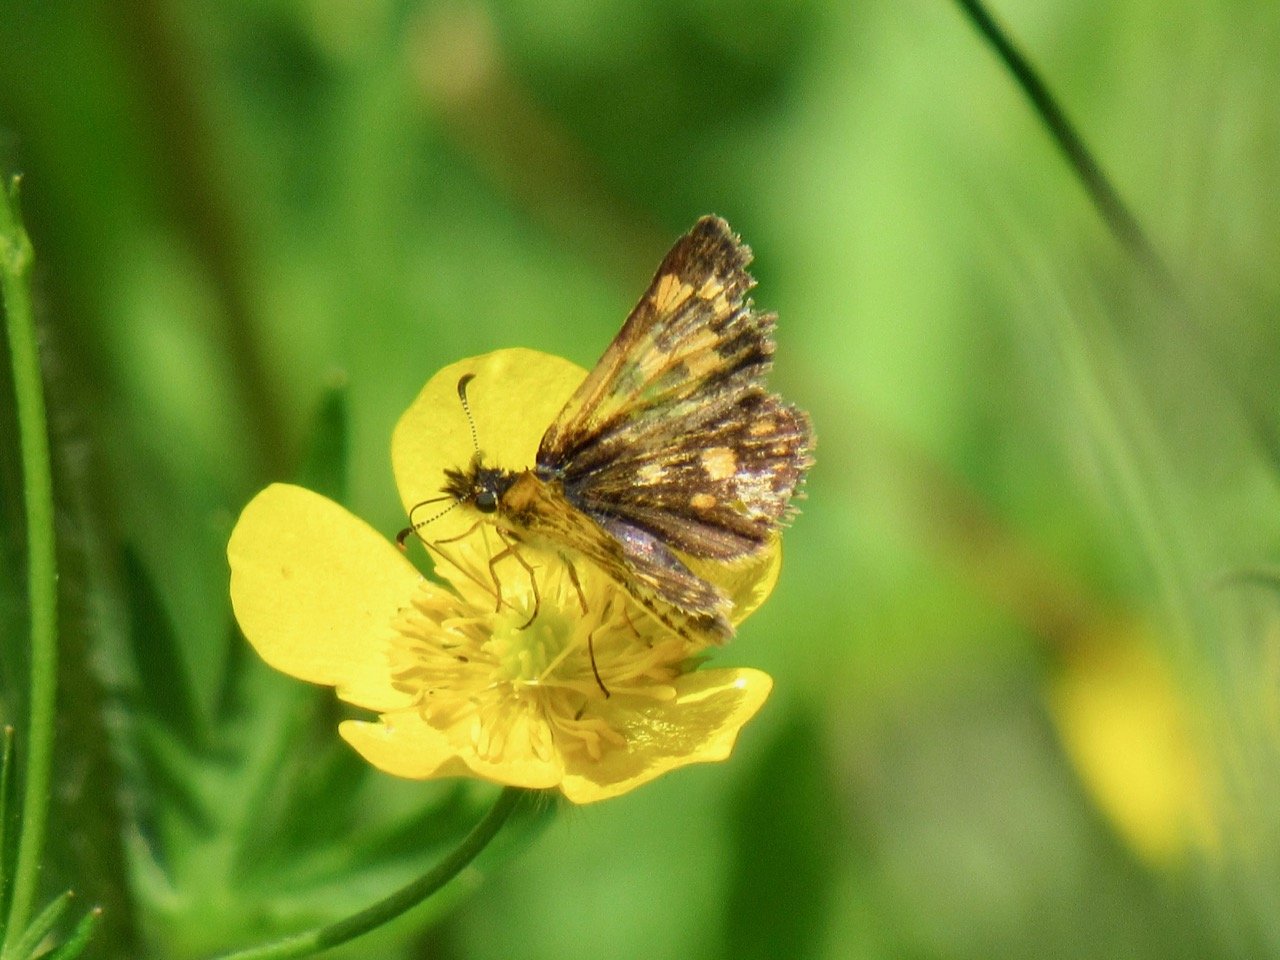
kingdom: Animalia
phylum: Arthropoda
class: Insecta
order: Lepidoptera
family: Hesperiidae
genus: Carterocephalus
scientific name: Carterocephalus palaemon
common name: Chequered Skipper
